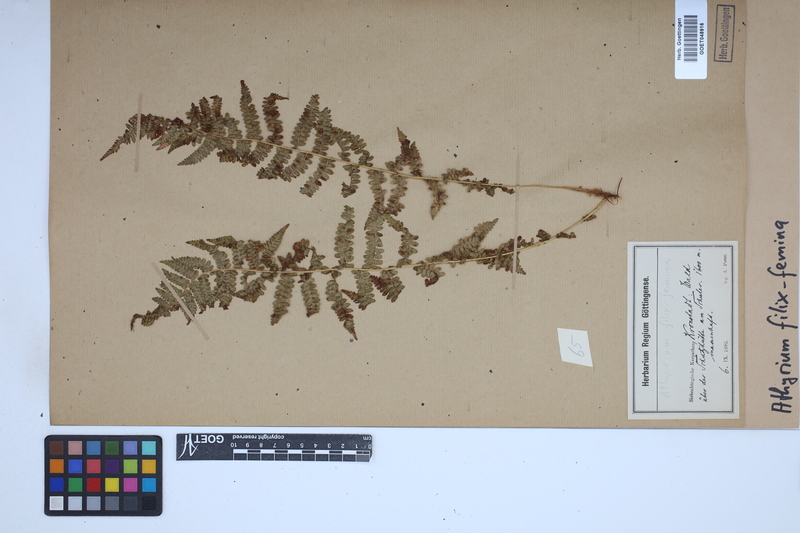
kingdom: Plantae
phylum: Tracheophyta
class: Polypodiopsida
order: Polypodiales
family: Athyriaceae
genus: Athyrium
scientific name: Athyrium filix-femina
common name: Lady fern
